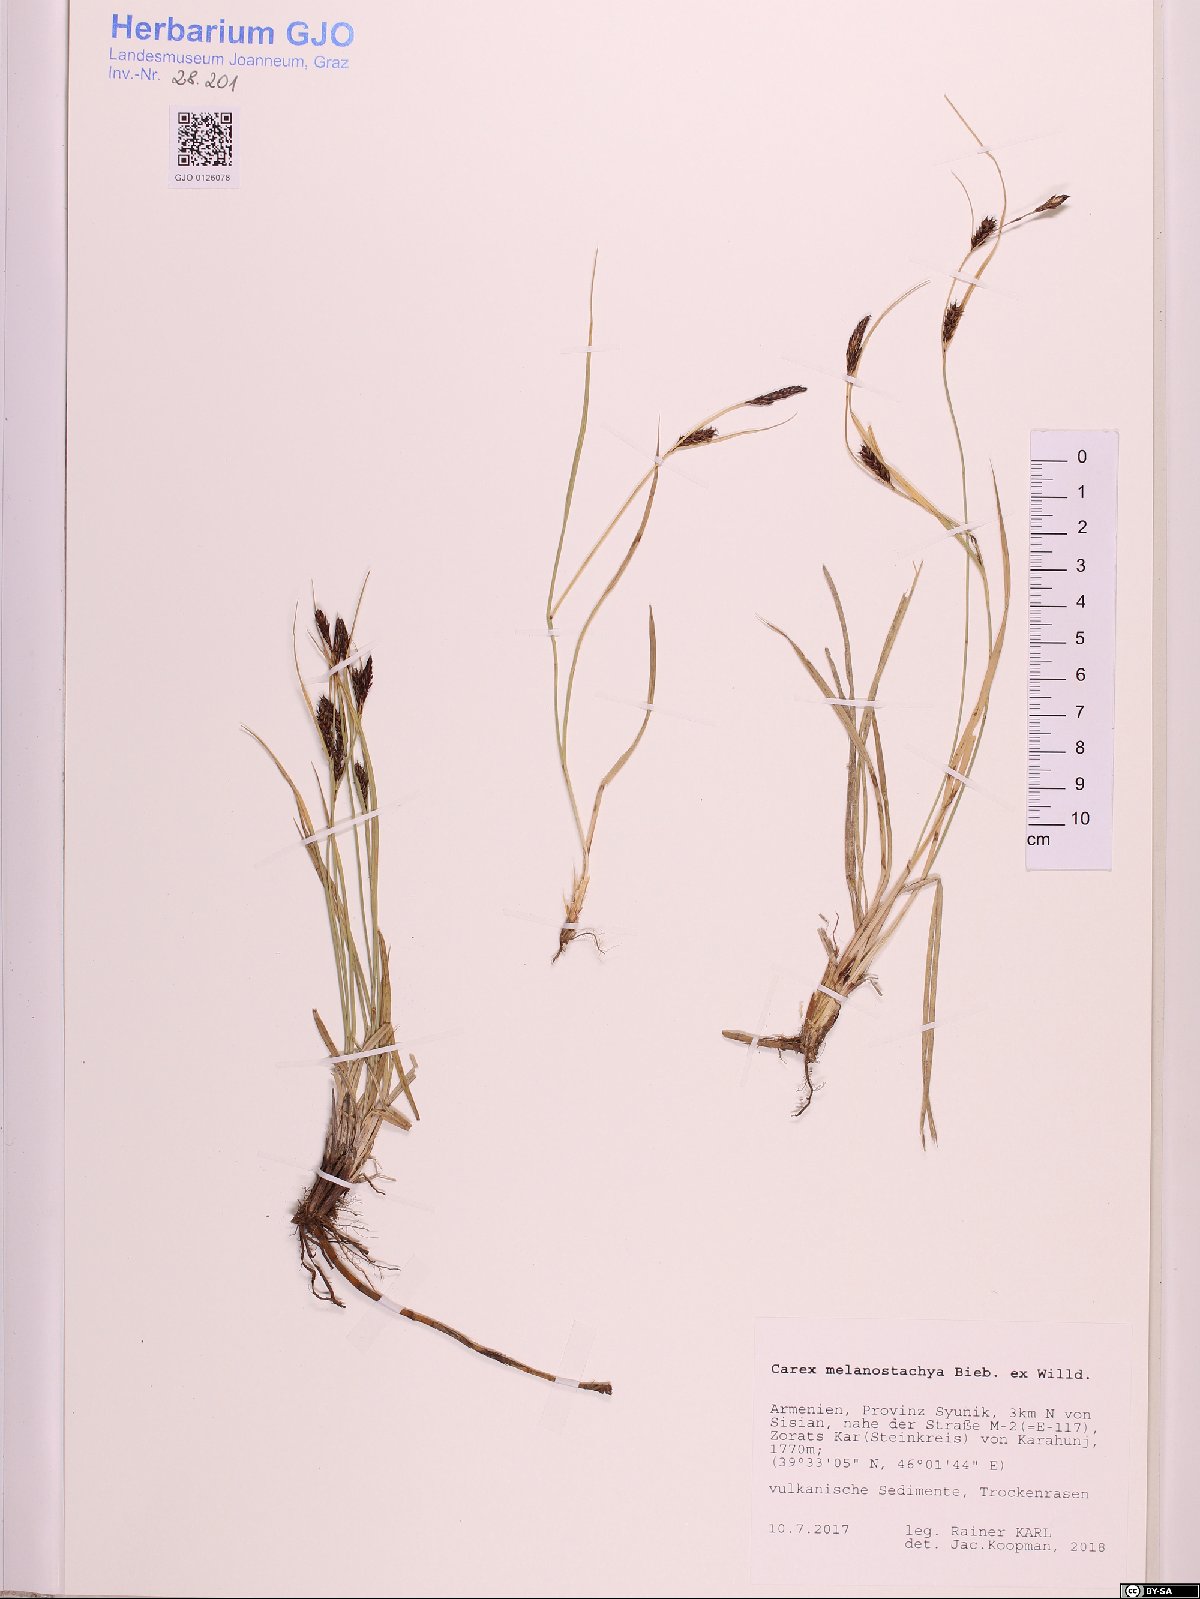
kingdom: Plantae
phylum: Tracheophyta
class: Liliopsida
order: Poales
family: Cyperaceae
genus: Carex
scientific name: Carex melanostachya
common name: Black-spiked sedge
